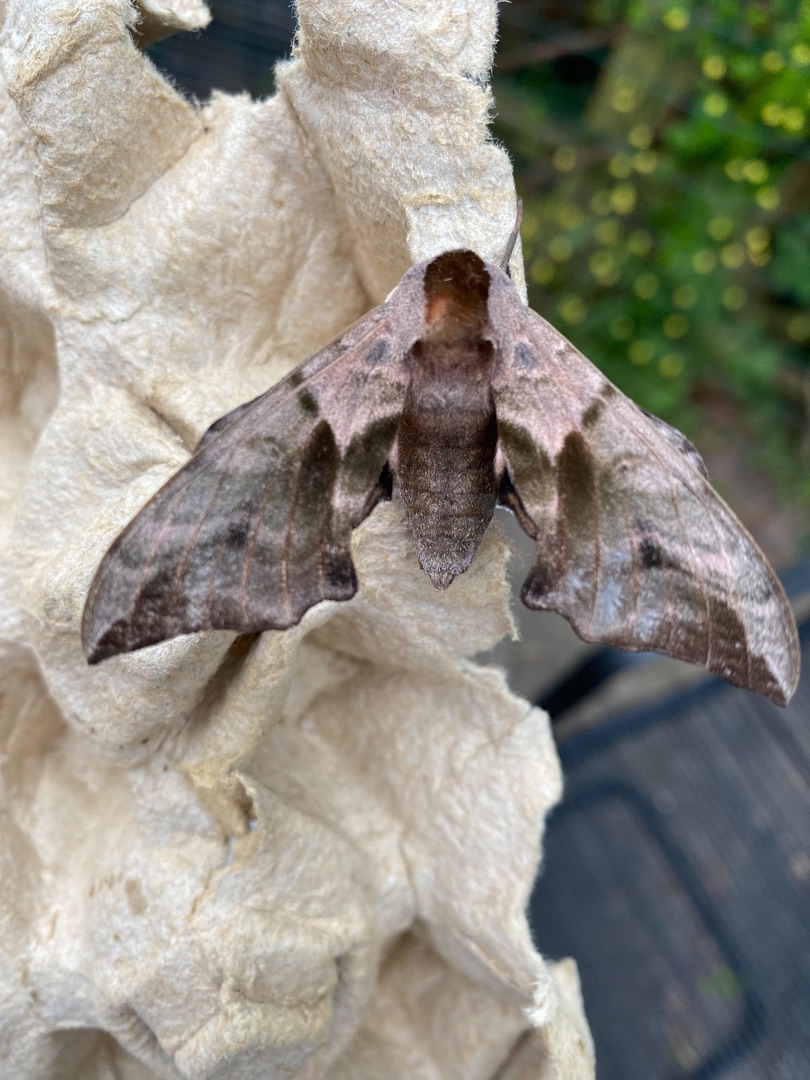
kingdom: Animalia
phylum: Arthropoda
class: Insecta
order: Lepidoptera
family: Sphingidae
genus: Smerinthus
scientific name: Smerinthus ocellata
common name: Aftenpåfugleøje
